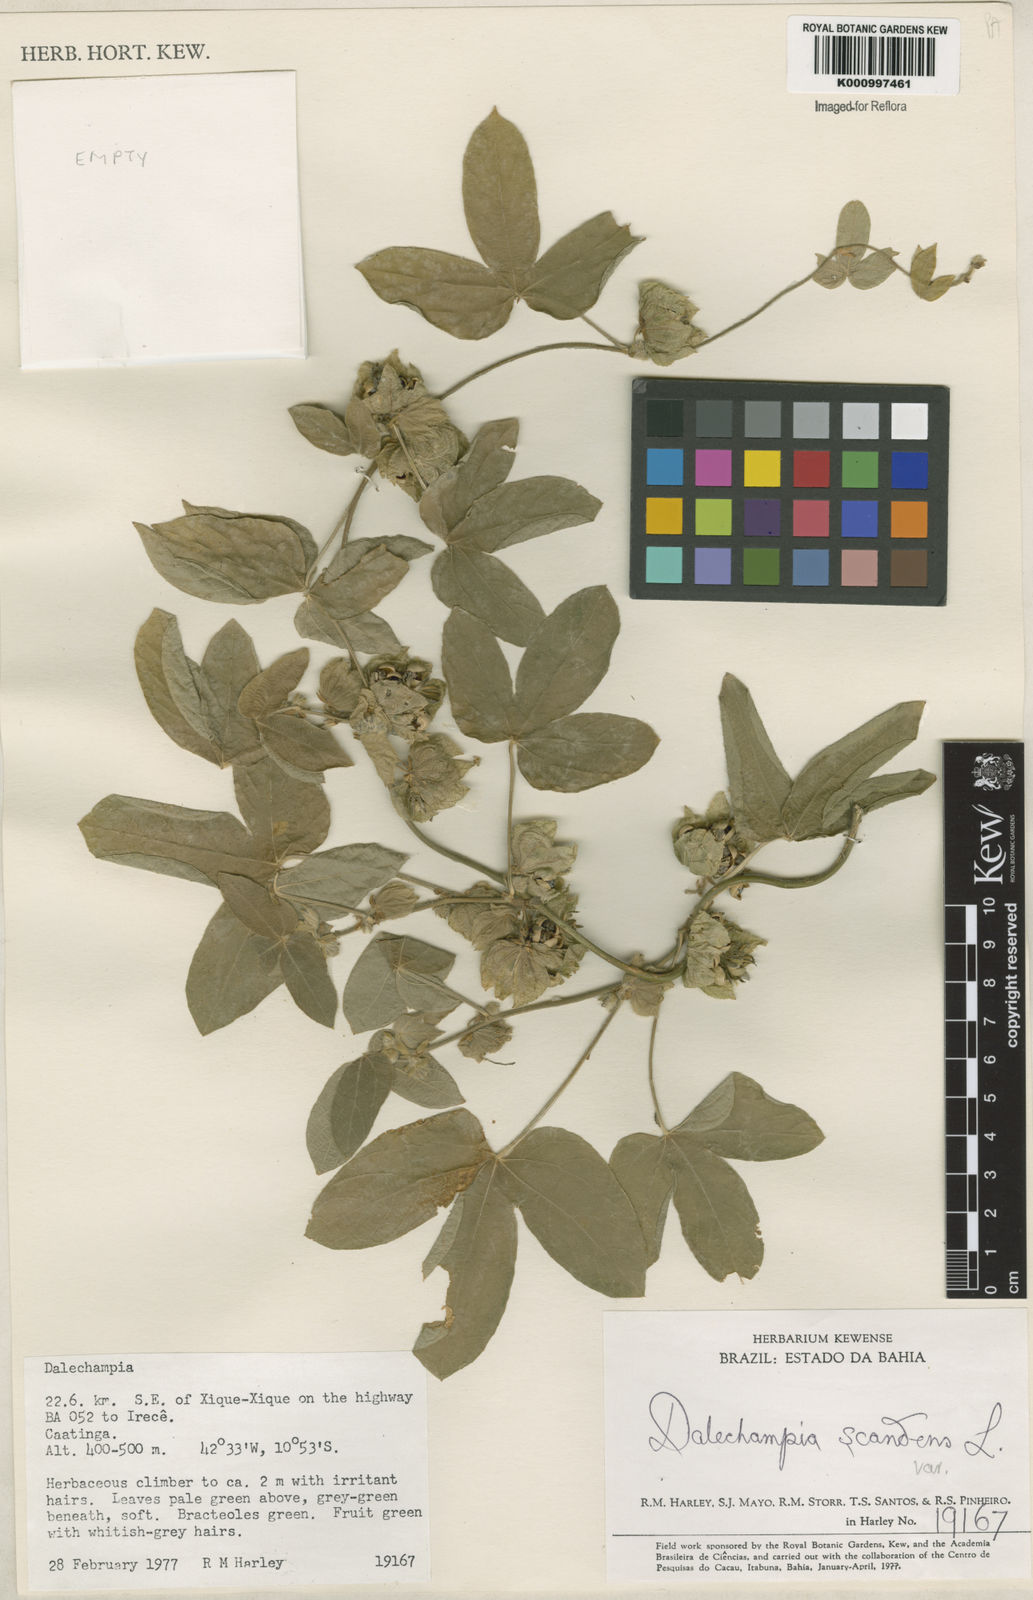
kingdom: Plantae
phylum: Tracheophyta
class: Magnoliopsida
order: Malpighiales
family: Euphorbiaceae
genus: Dalechampia
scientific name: Dalechampia scandens
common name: Spurgecreeper
